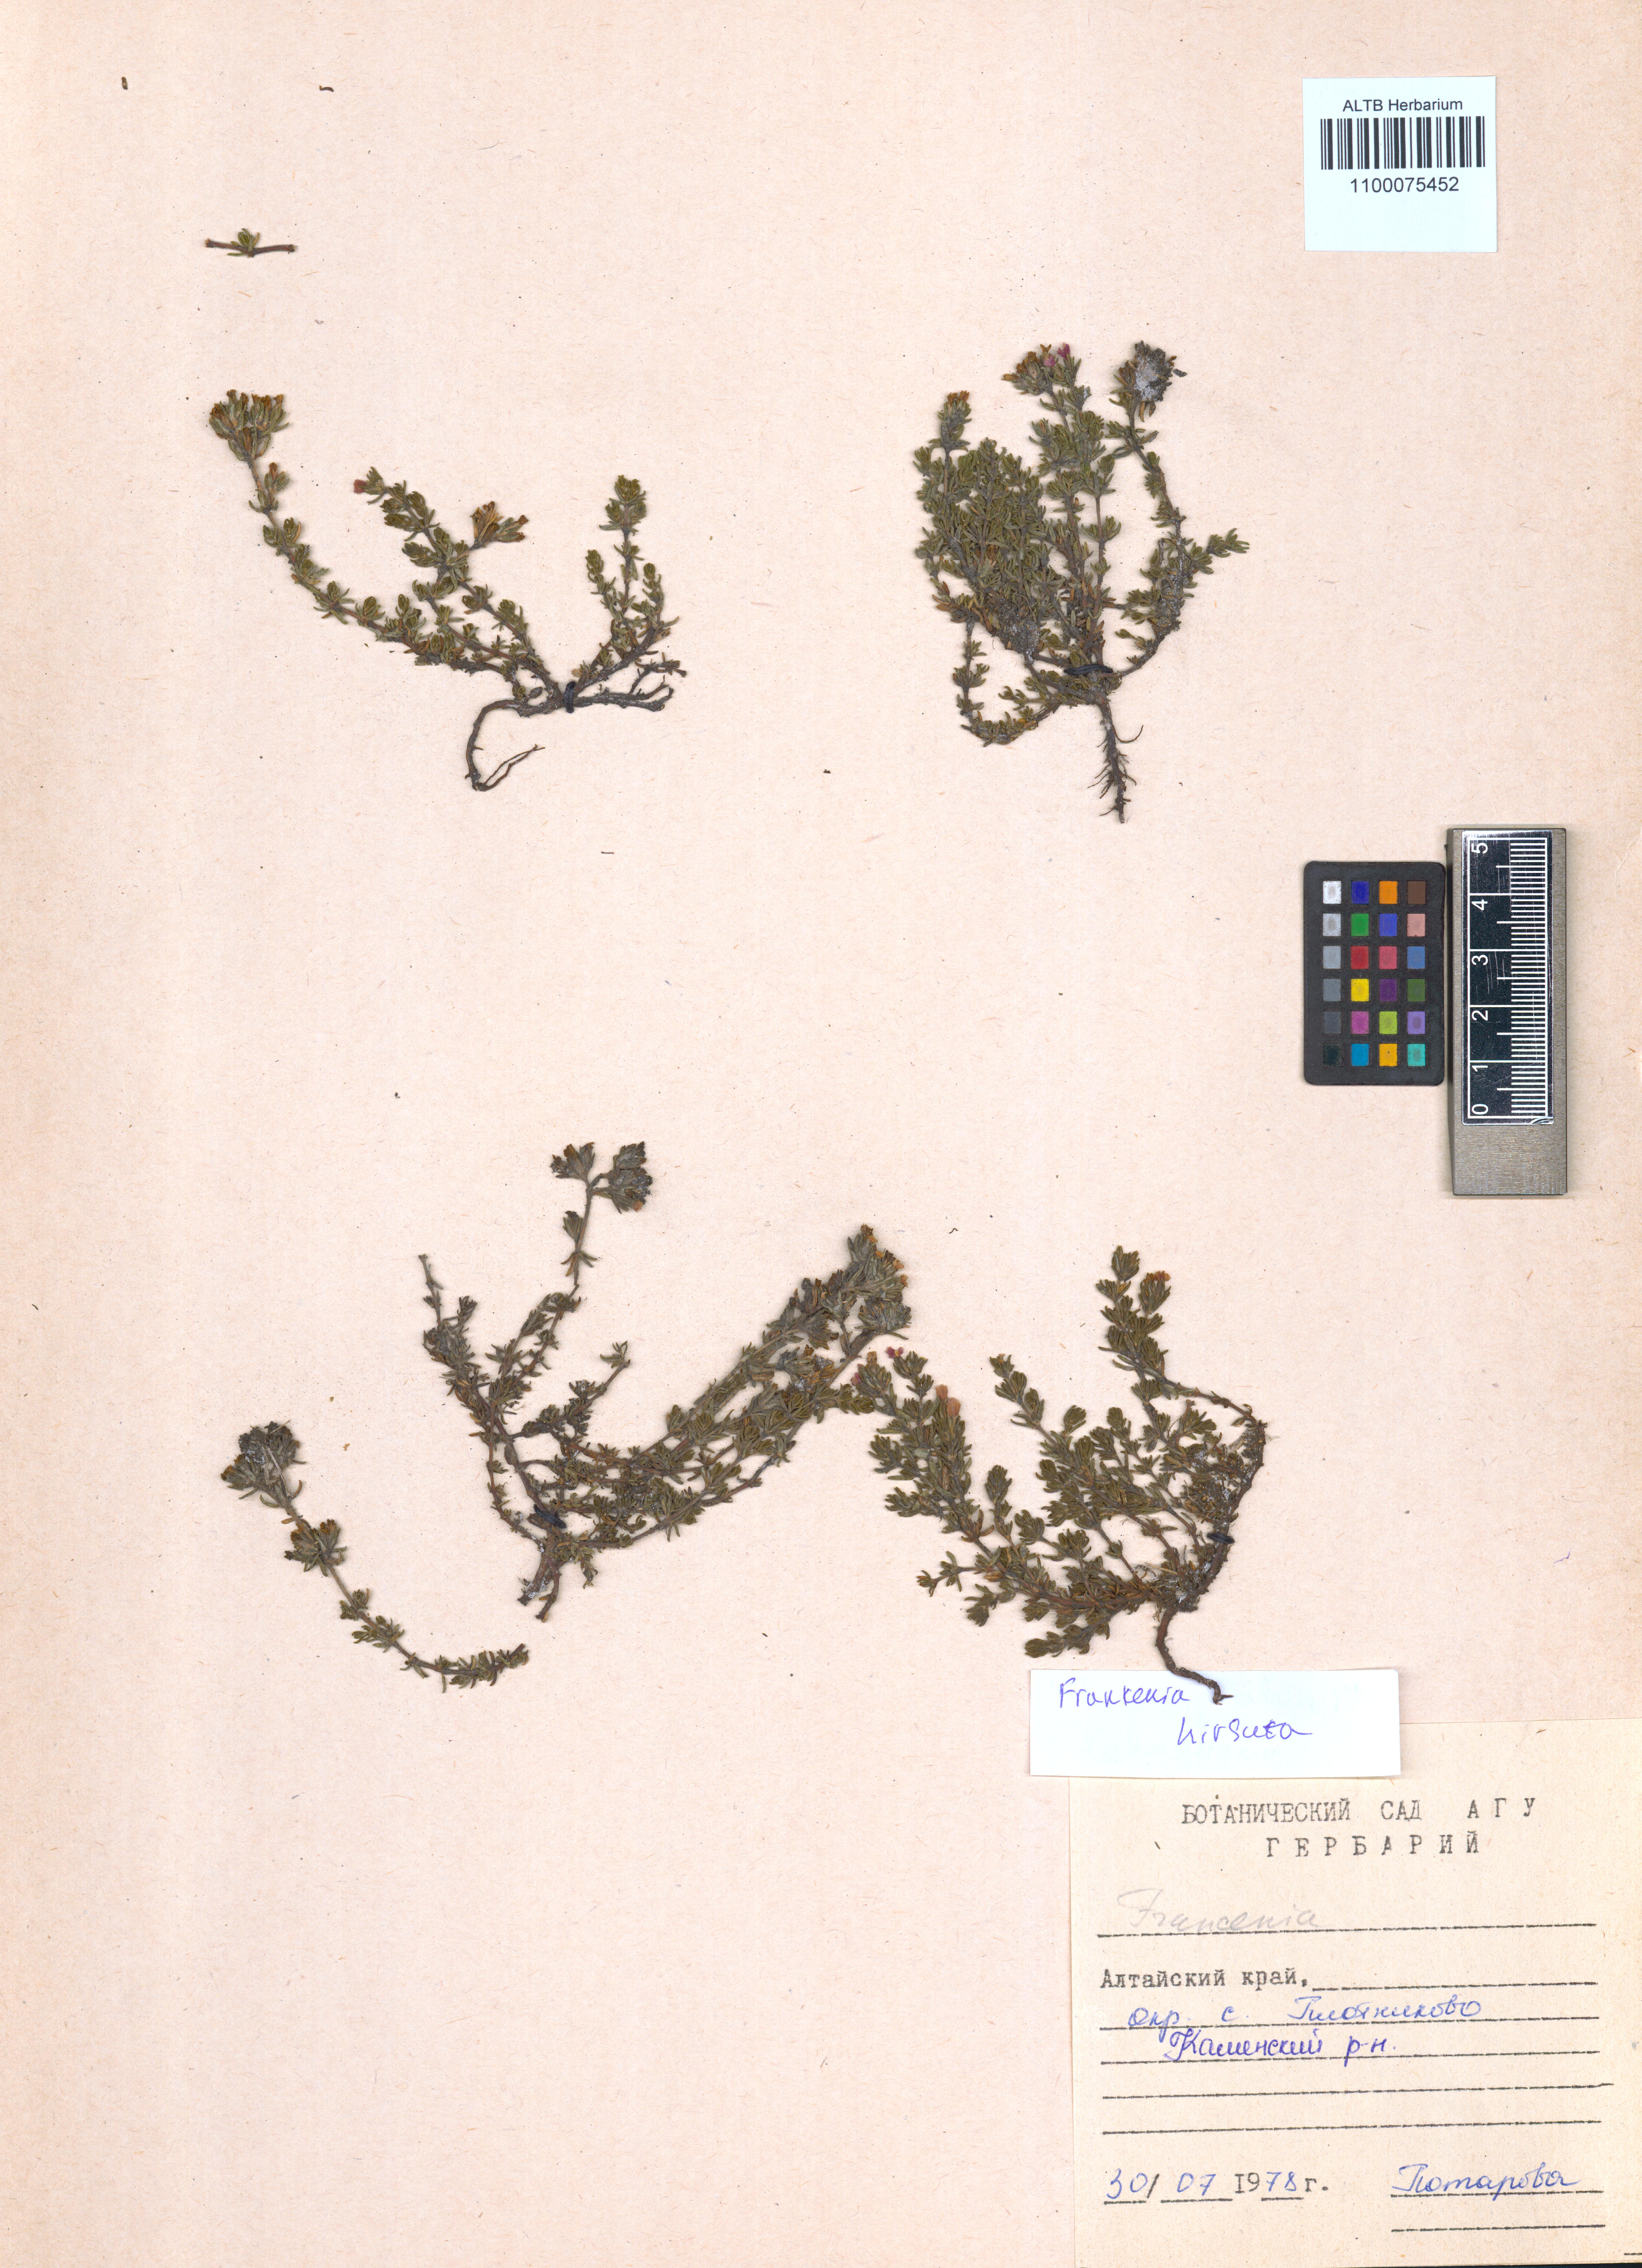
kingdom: Plantae
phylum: Tracheophyta
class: Magnoliopsida
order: Caryophyllales
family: Frankeniaceae
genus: Frankenia
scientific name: Frankenia hirsuta
